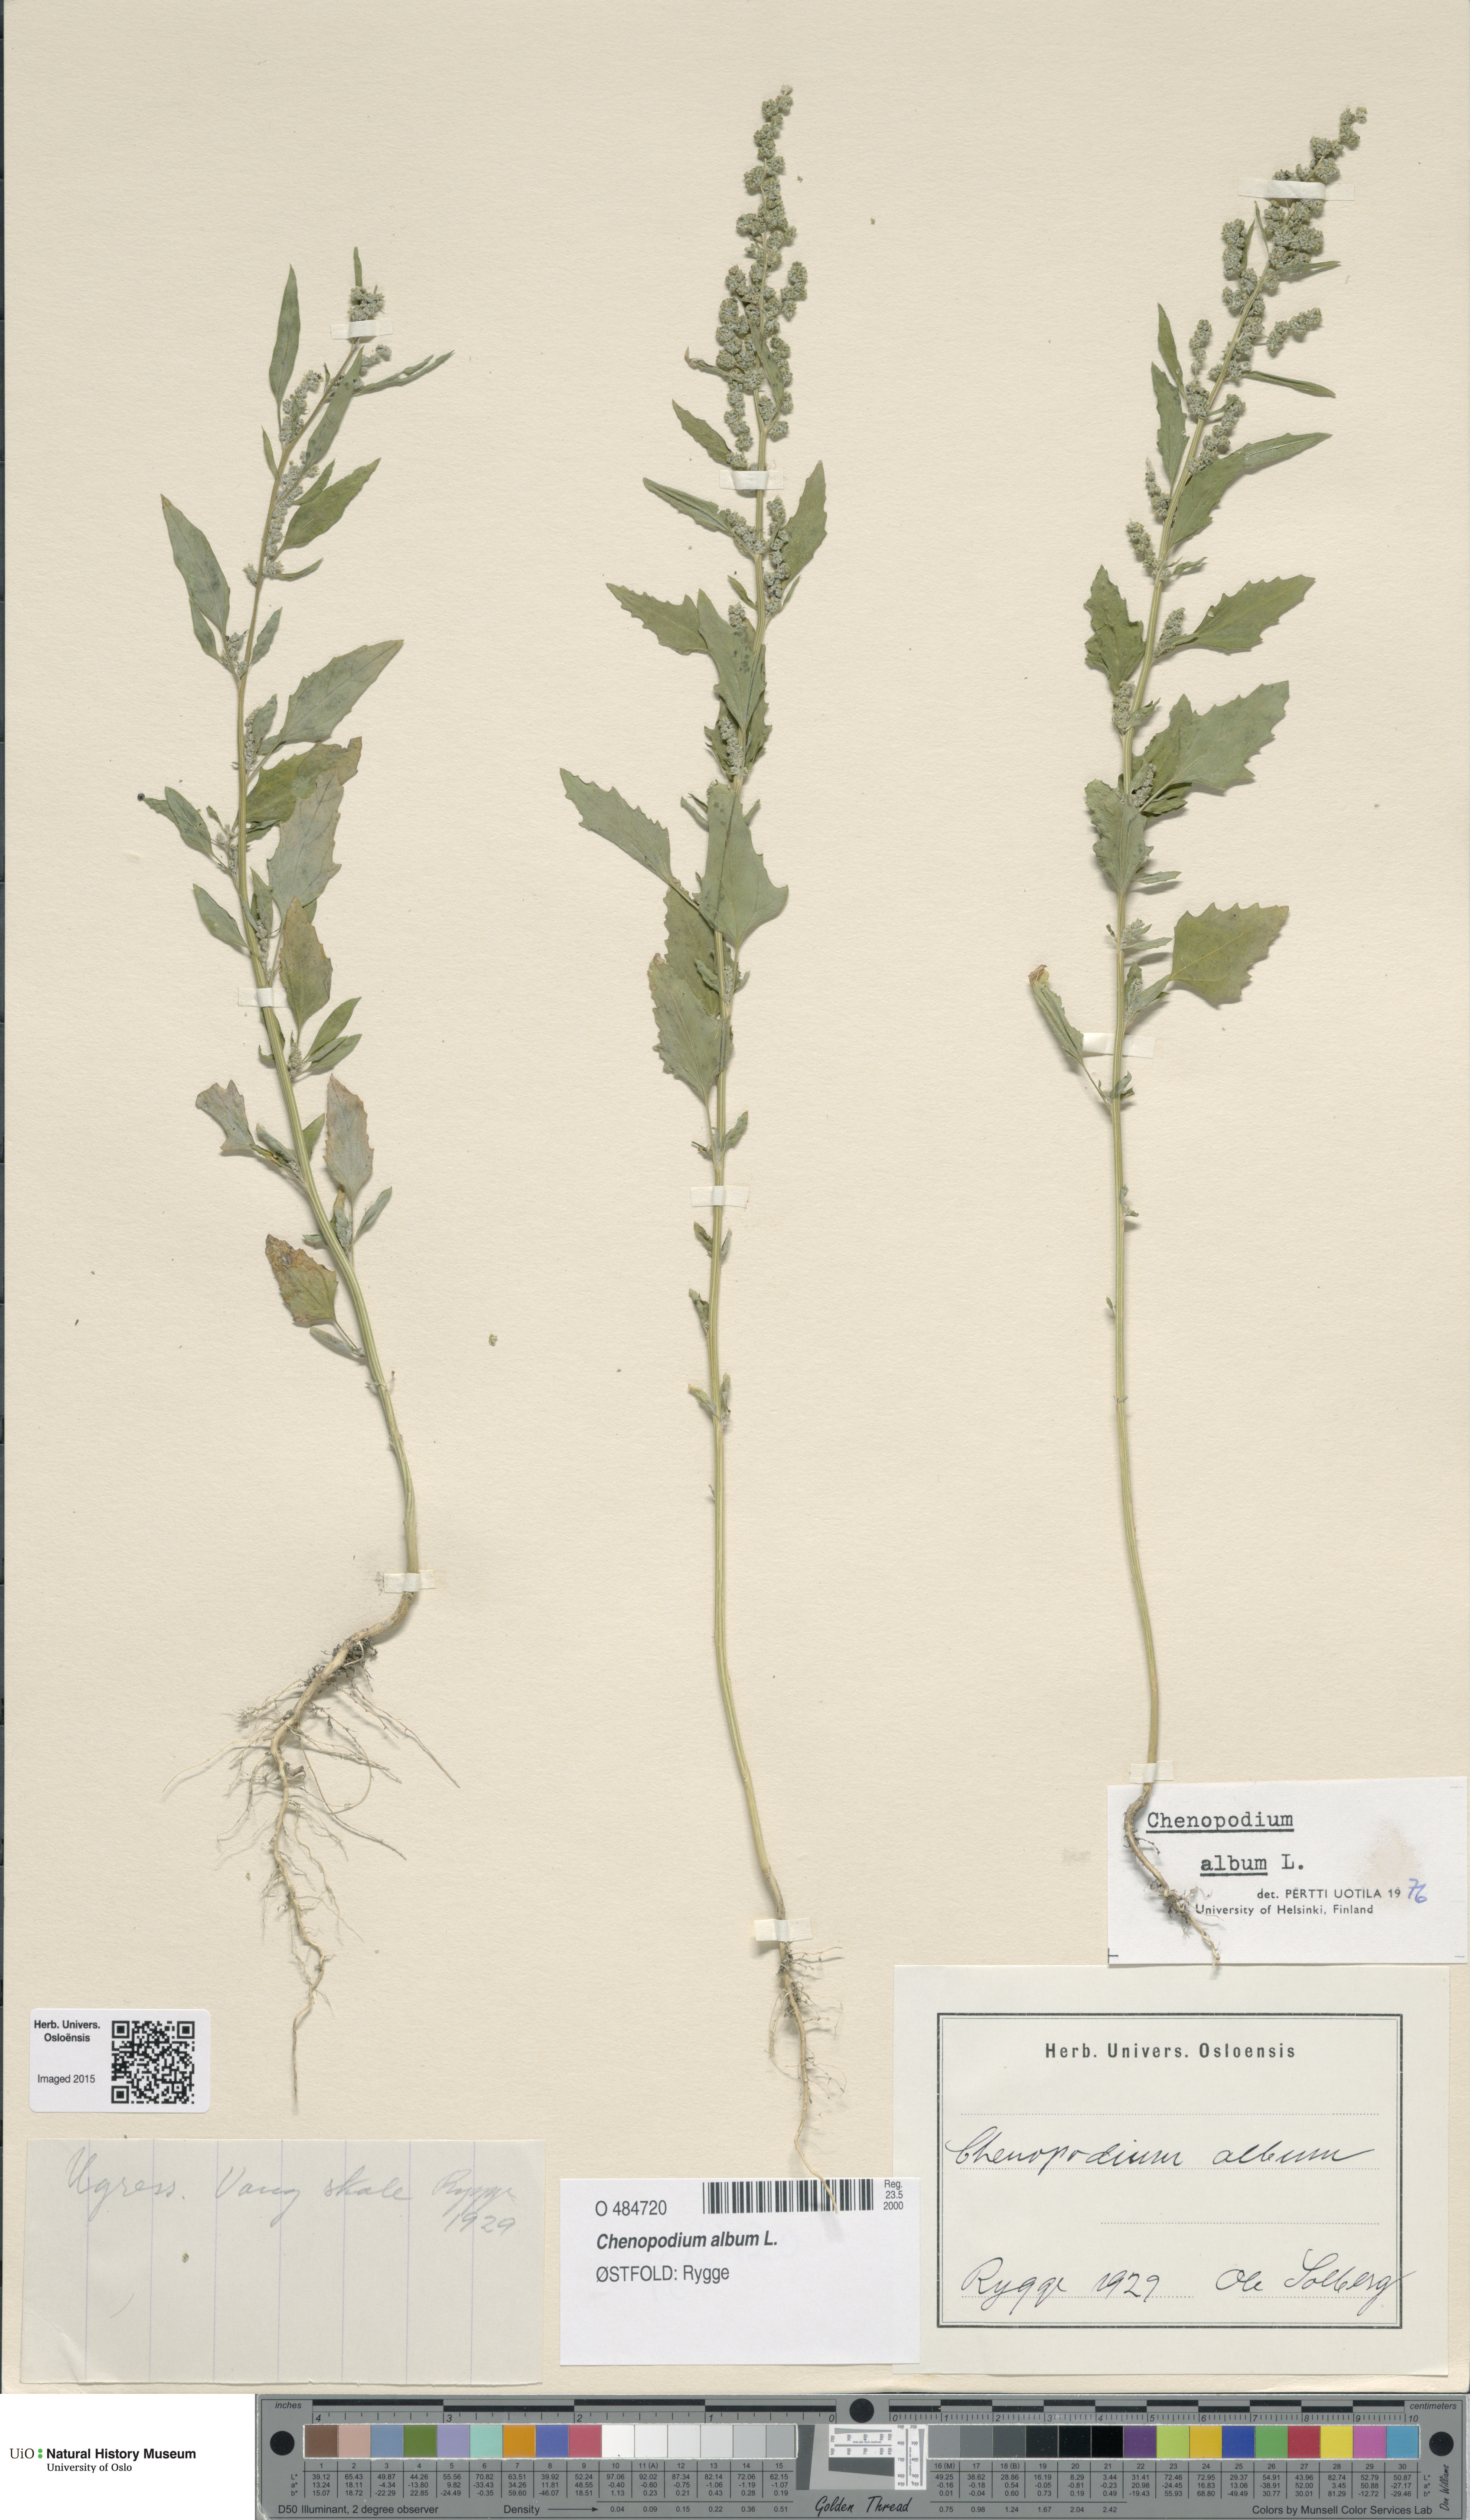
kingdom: Plantae
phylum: Tracheophyta
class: Magnoliopsida
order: Caryophyllales
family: Amaranthaceae
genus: Chenopodium
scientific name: Chenopodium album
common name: Fat-hen
